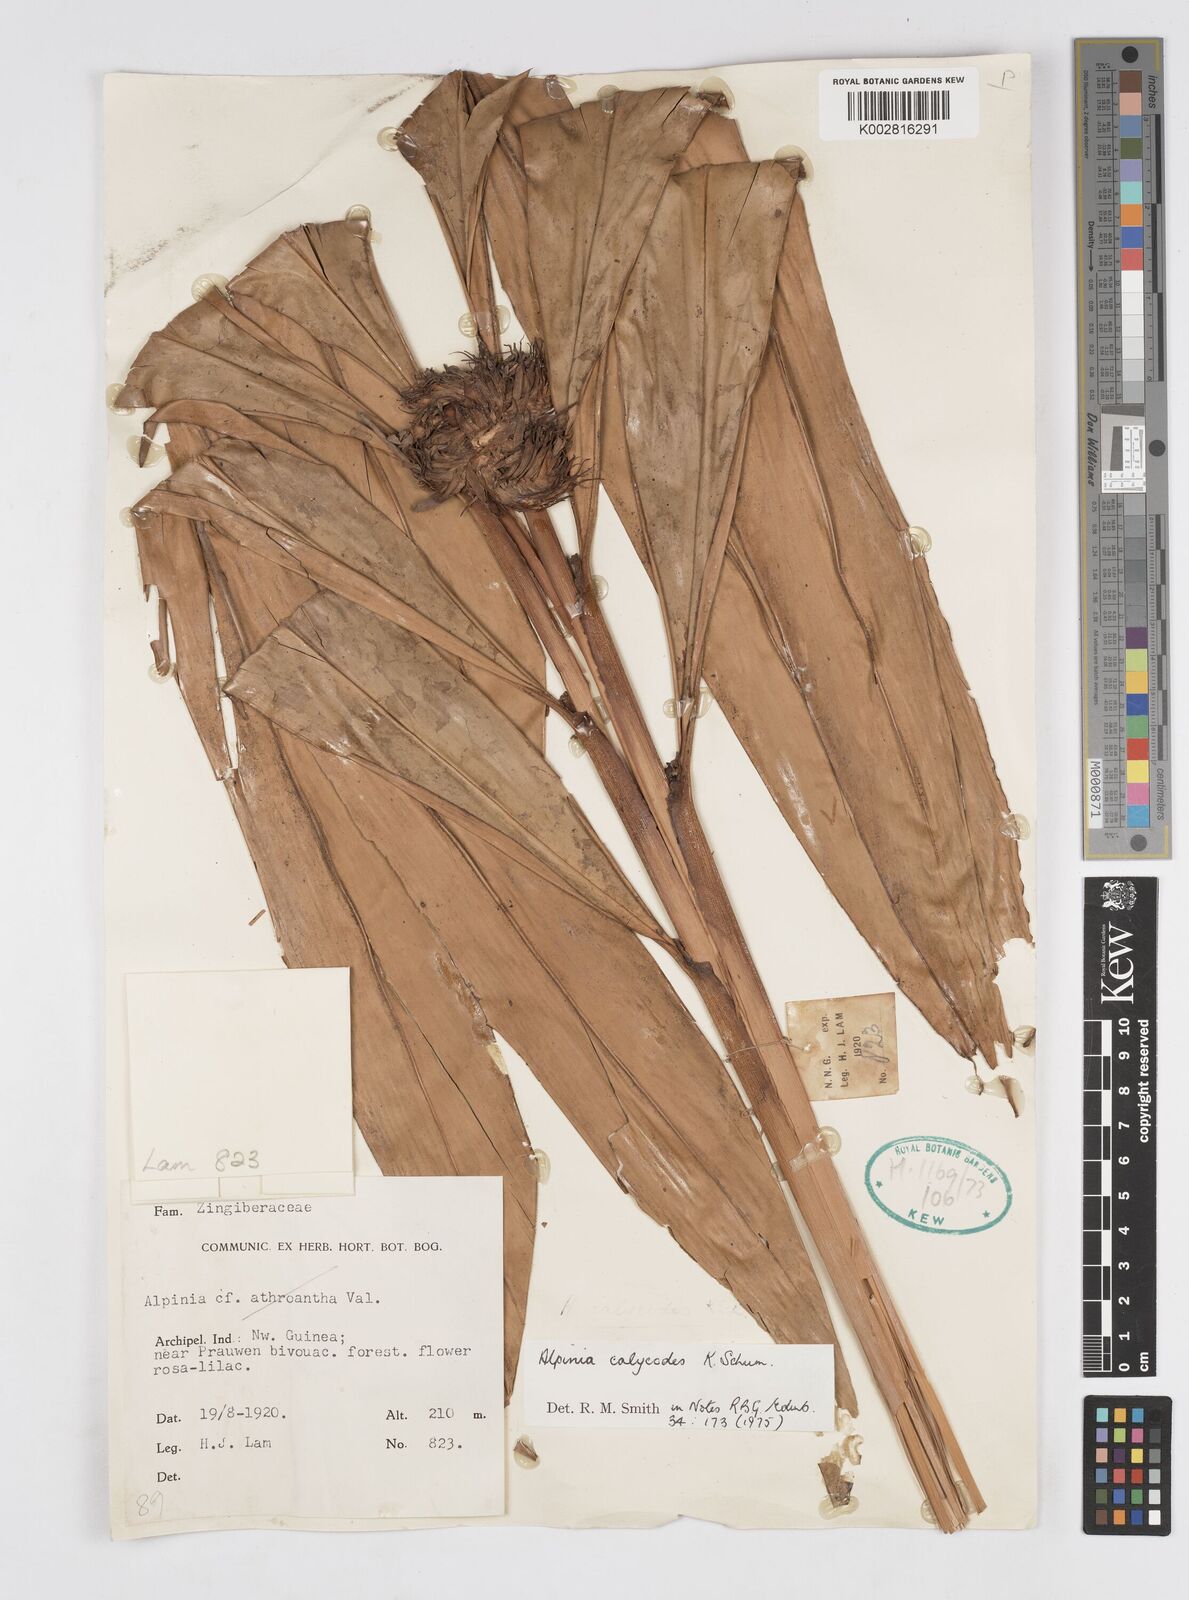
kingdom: Plantae
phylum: Tracheophyta
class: Liliopsida
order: Zingiberales
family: Zingiberaceae
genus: Alpinia
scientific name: Alpinia calycodes
